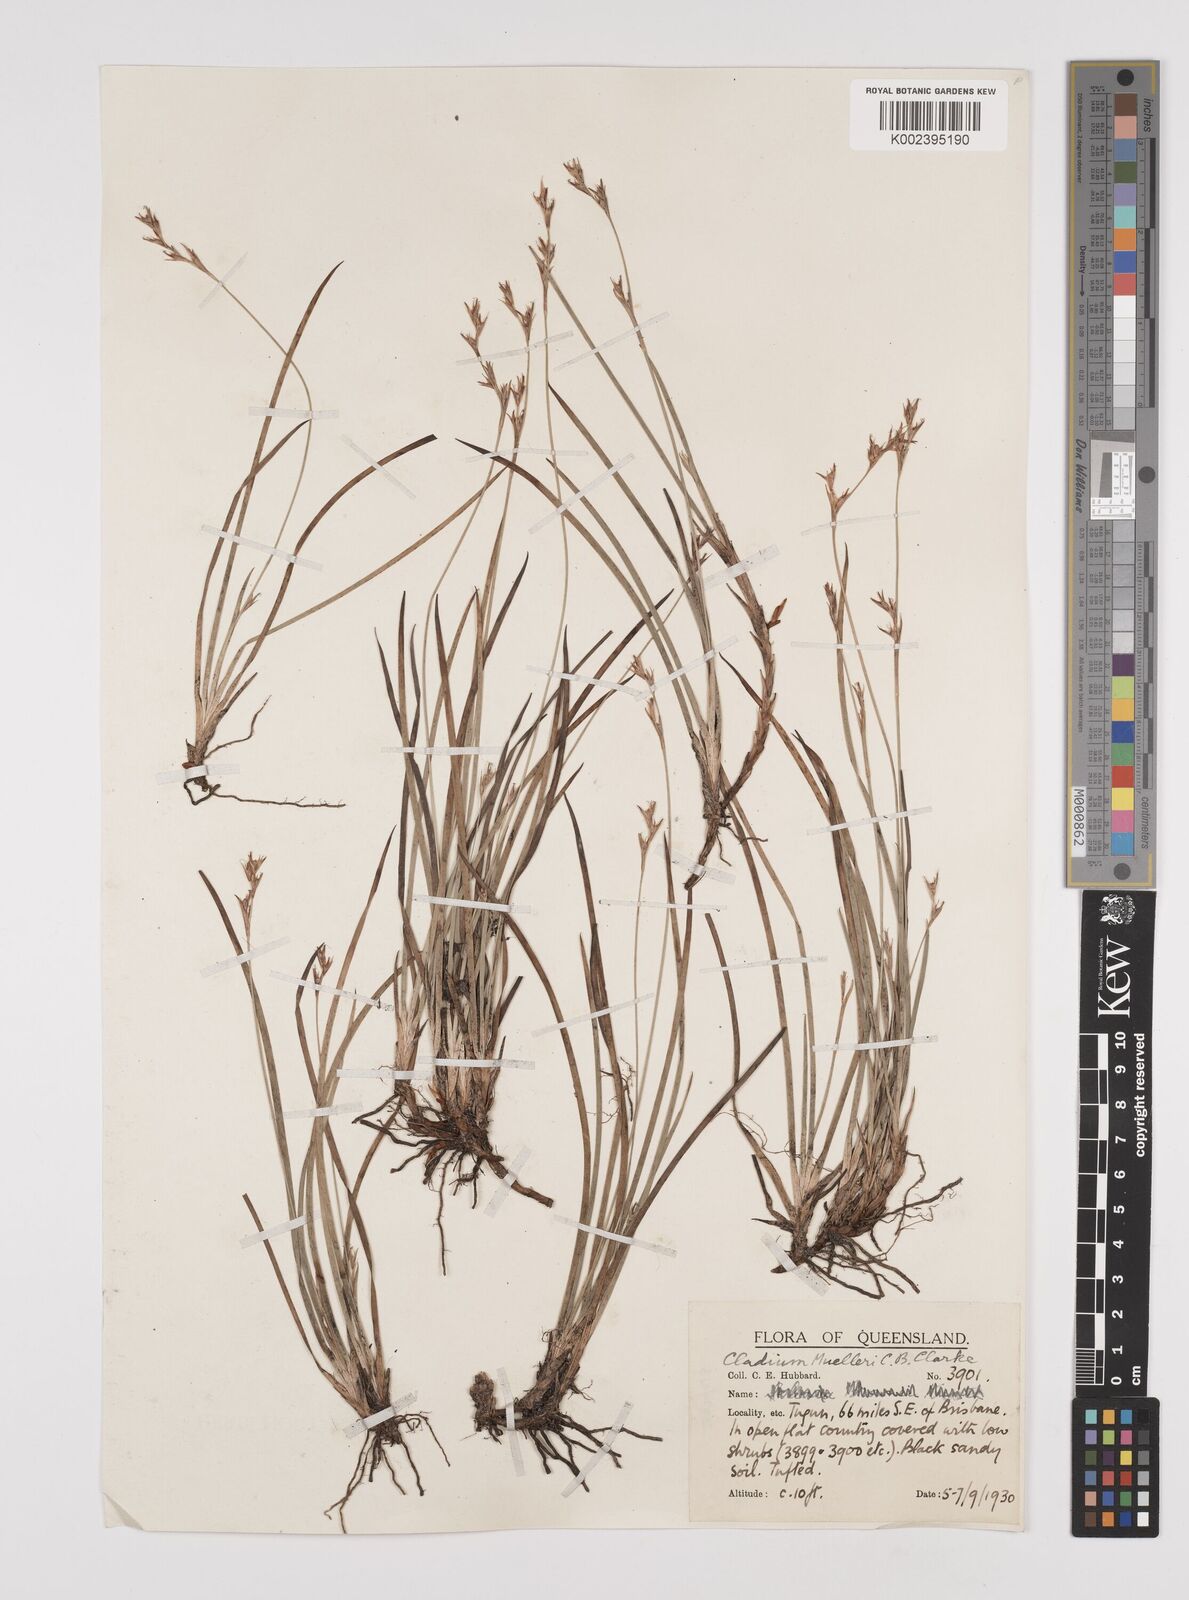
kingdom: Plantae
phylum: Tracheophyta
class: Liliopsida
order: Poales
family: Cyperaceae
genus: Machaerina
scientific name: Machaerina muelleri
